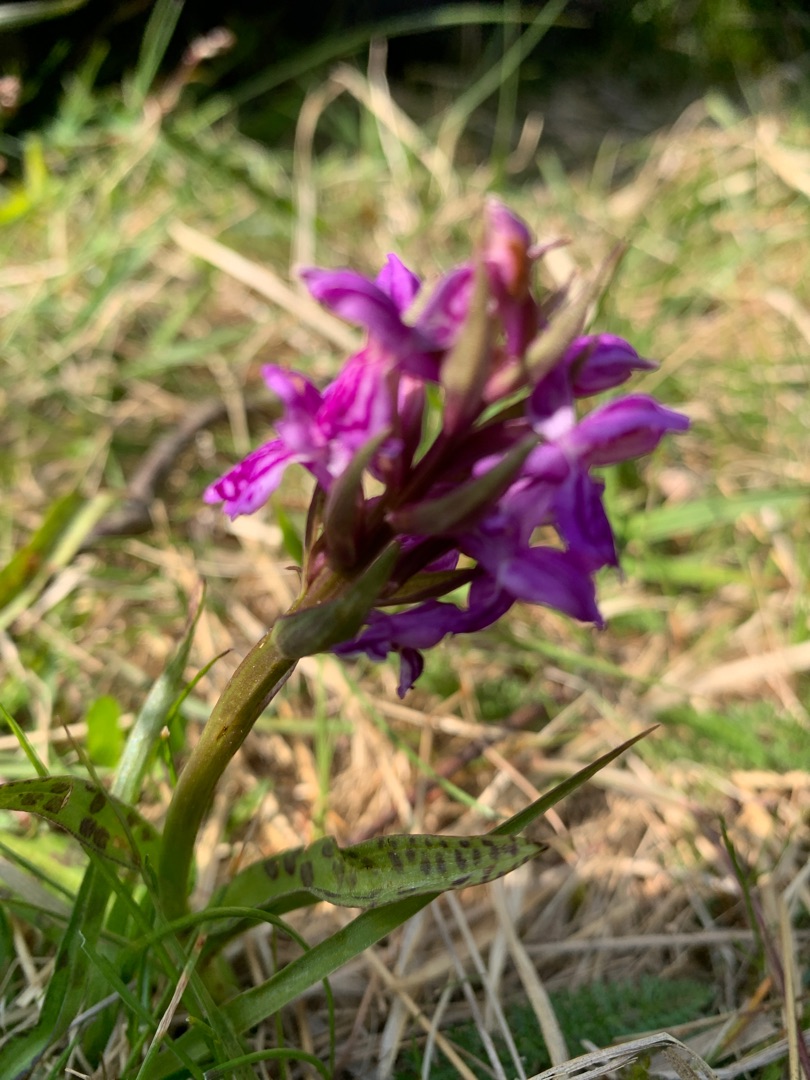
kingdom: Plantae
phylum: Tracheophyta
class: Liliopsida
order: Asparagales
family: Orchidaceae
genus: Dactylorhiza
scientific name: Dactylorhiza majalis
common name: Maj-gøgeurt
